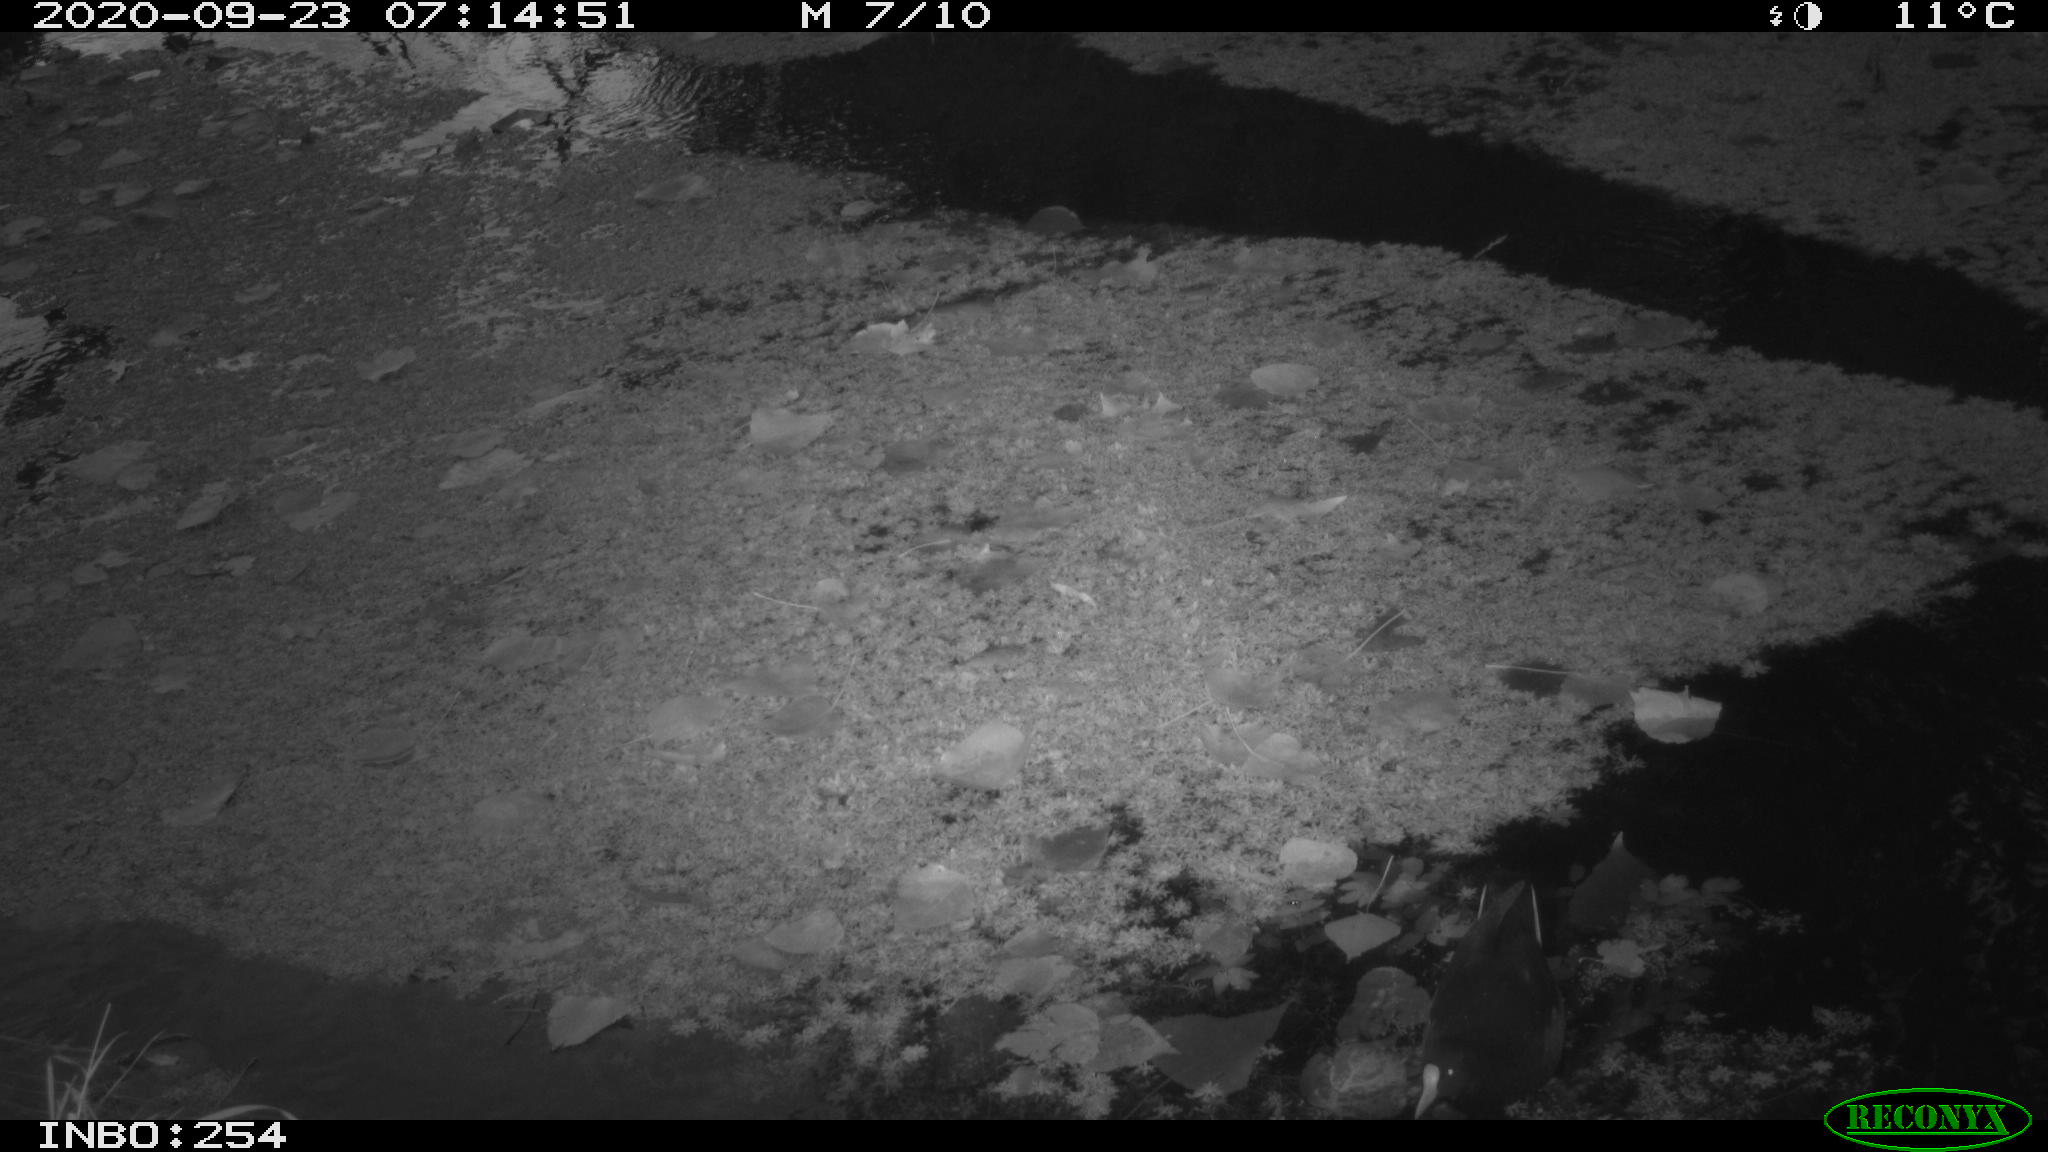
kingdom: Animalia
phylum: Chordata
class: Aves
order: Gruiformes
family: Rallidae
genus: Gallinula
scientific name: Gallinula chloropus
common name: Common moorhen
